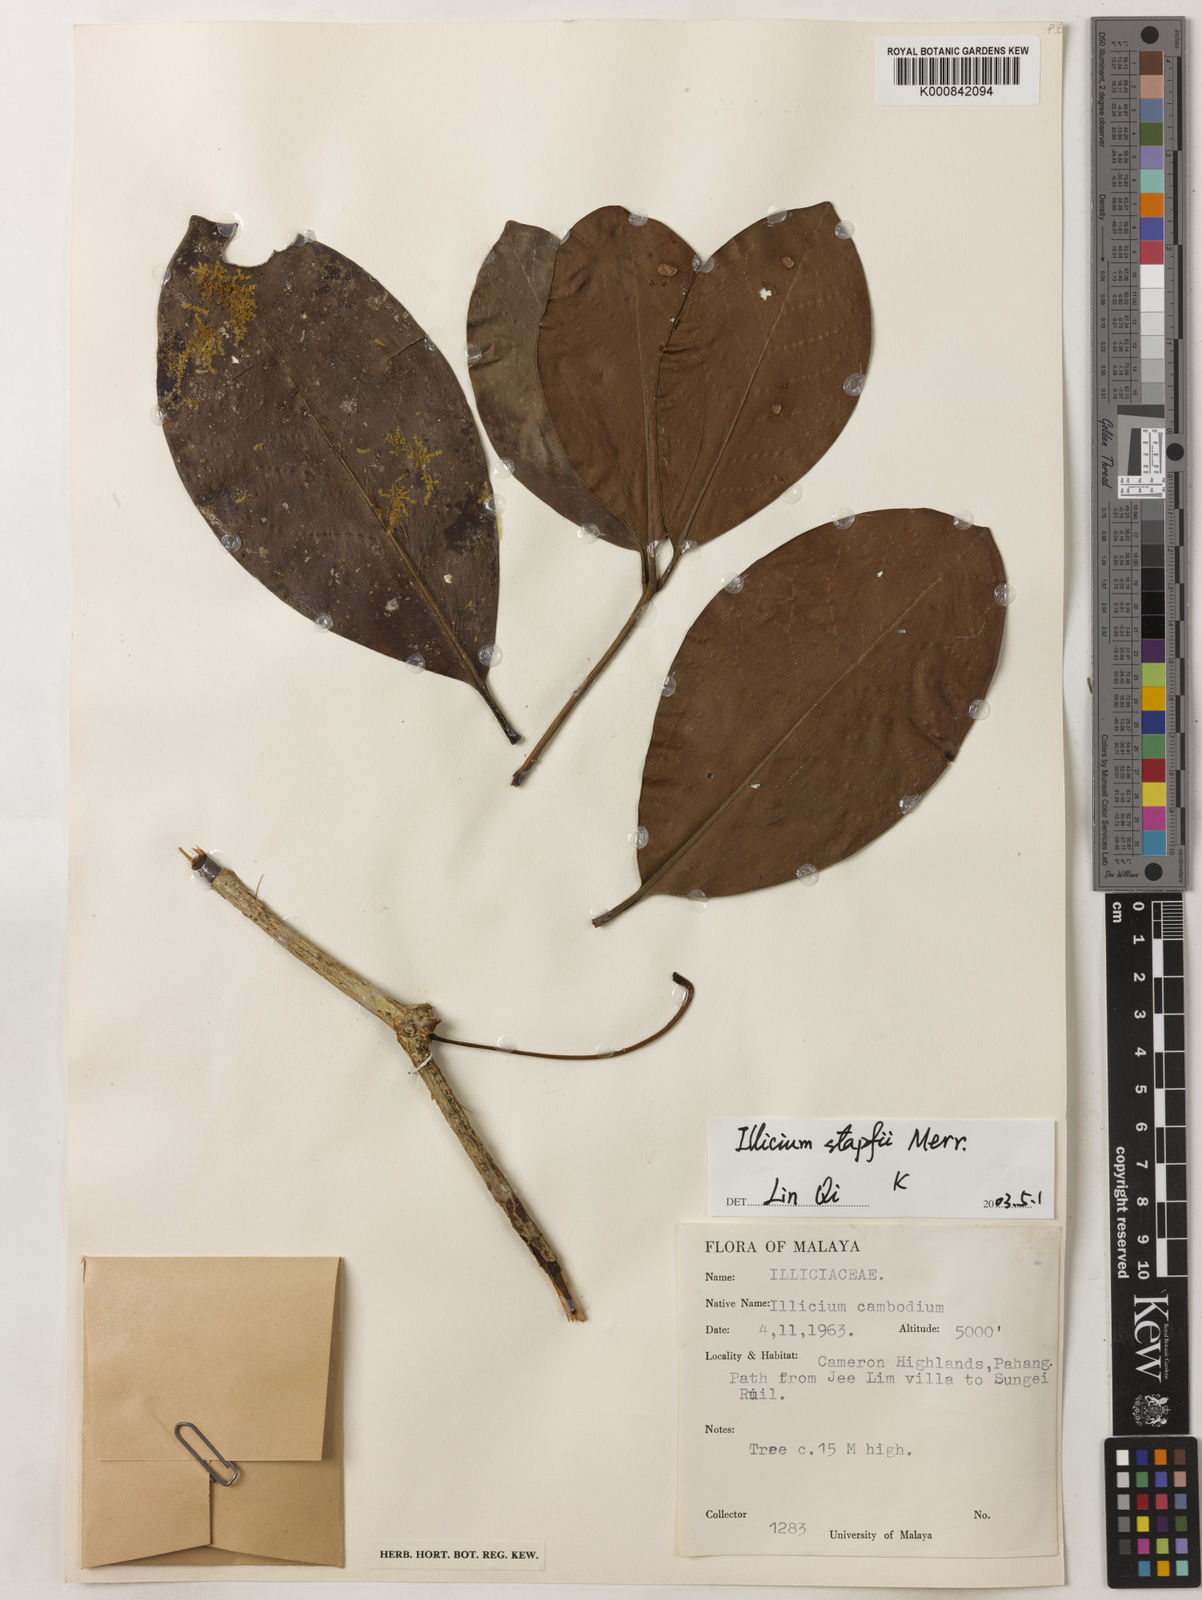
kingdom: Plantae
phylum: Tracheophyta
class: Magnoliopsida
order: Austrobaileyales
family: Schisandraceae
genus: Illicium
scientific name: Illicium stapfii
